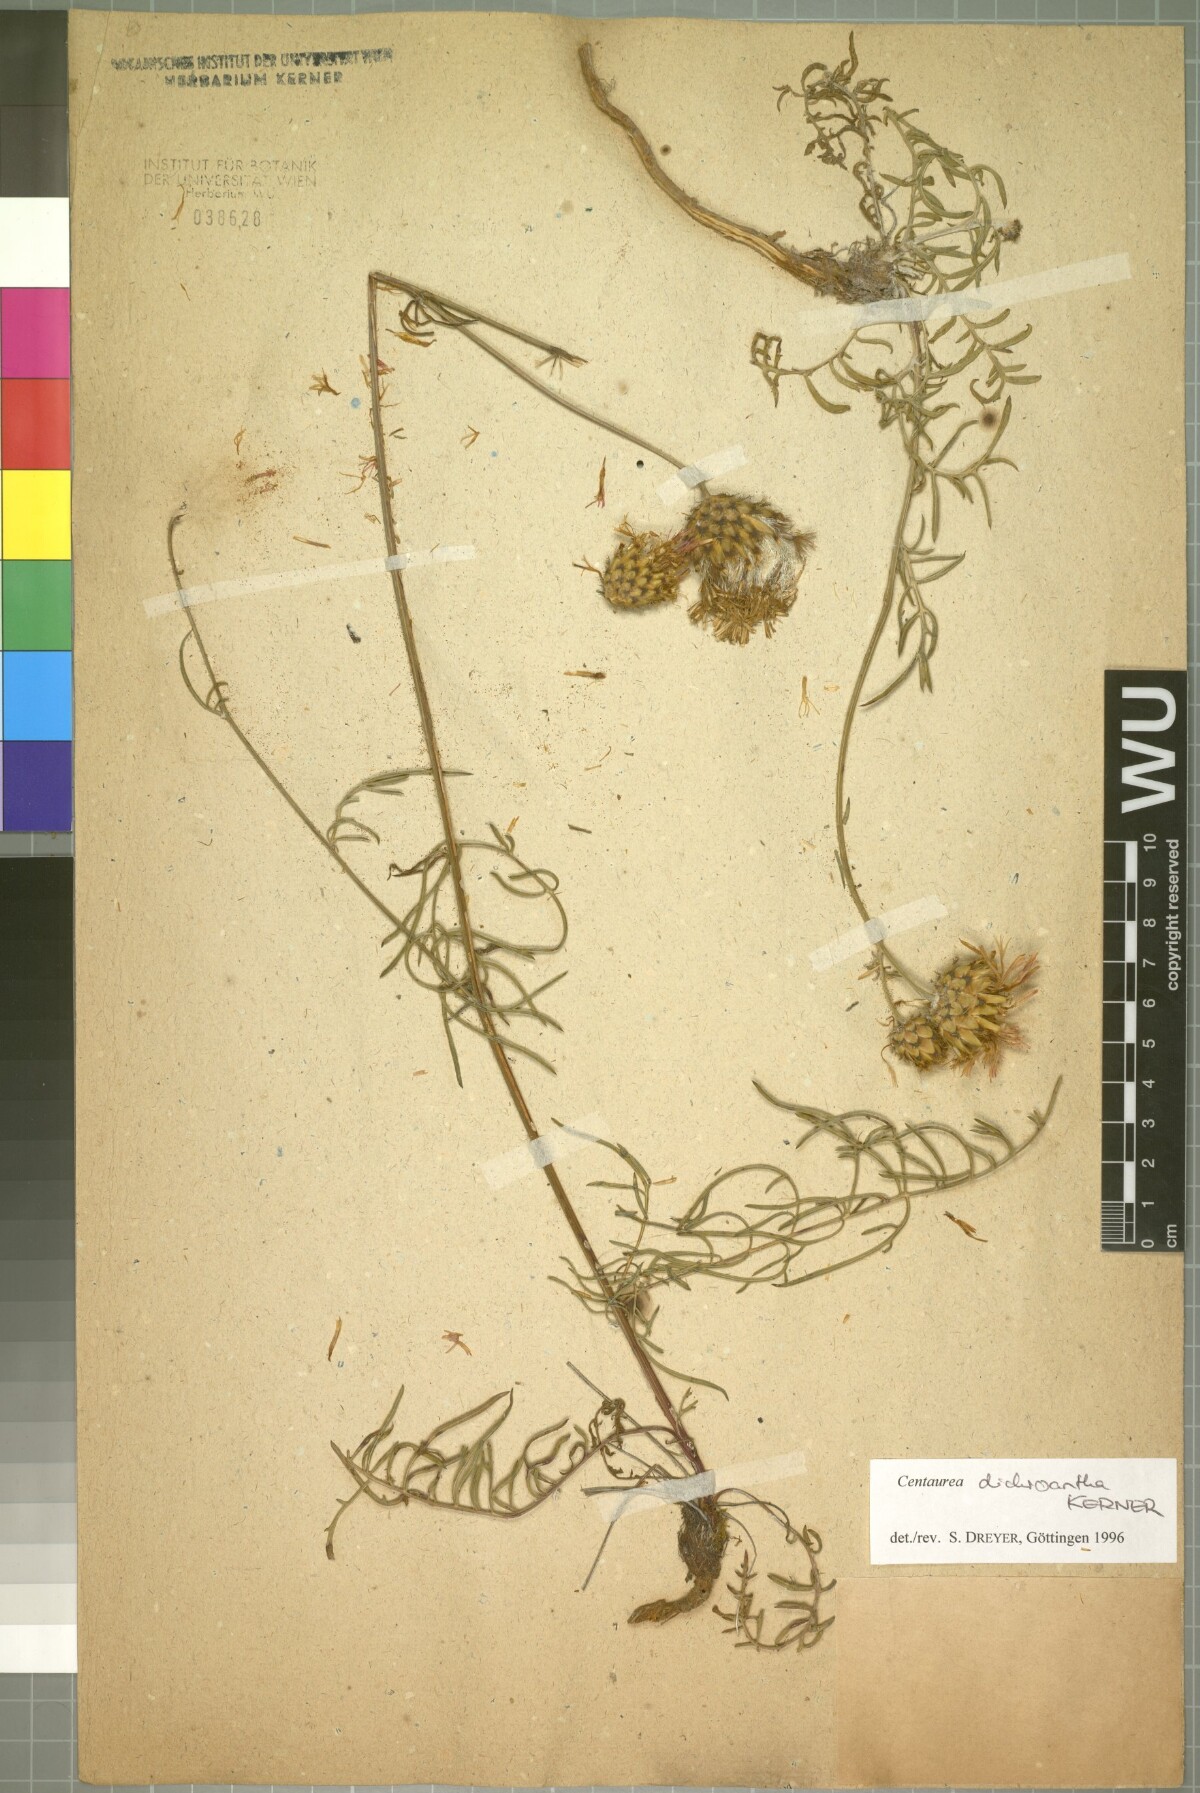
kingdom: Plantae
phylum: Tracheophyta
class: Magnoliopsida
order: Asterales
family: Asteraceae
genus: Centaurea
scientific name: Centaurea dichroantha
